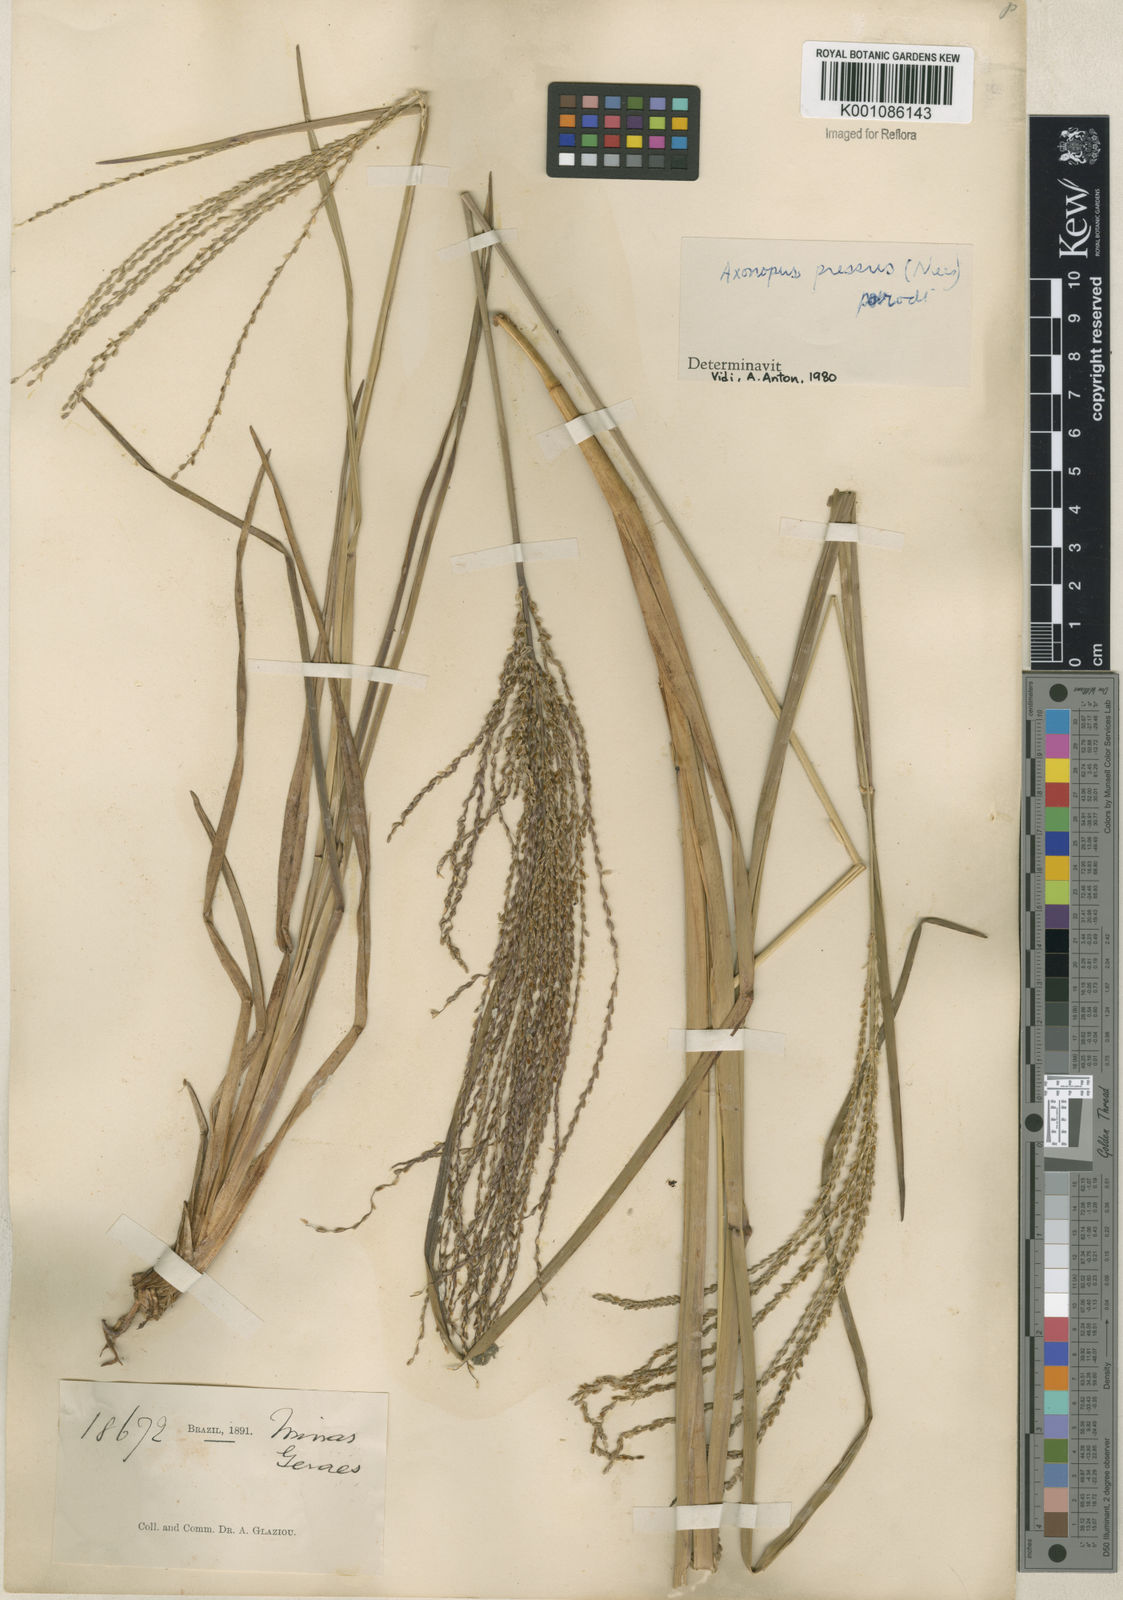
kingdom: Plantae
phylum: Tracheophyta
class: Liliopsida
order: Poales
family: Poaceae
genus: Axonopus
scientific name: Axonopus pressus
